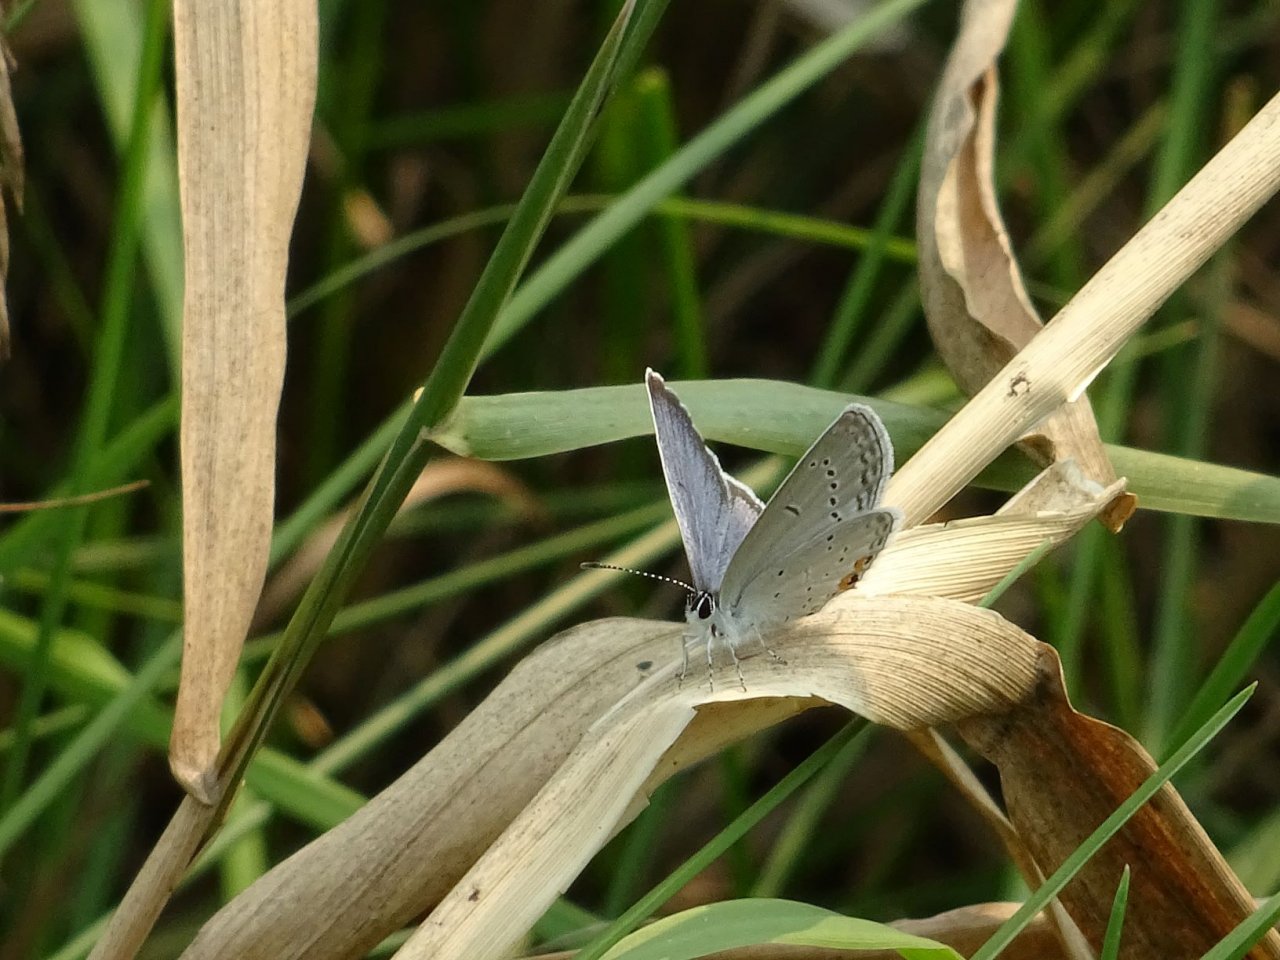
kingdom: Animalia
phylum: Arthropoda
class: Insecta
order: Lepidoptera
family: Lycaenidae
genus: Elkalyce
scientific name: Elkalyce comyntas
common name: Eastern Tailed-Blue
